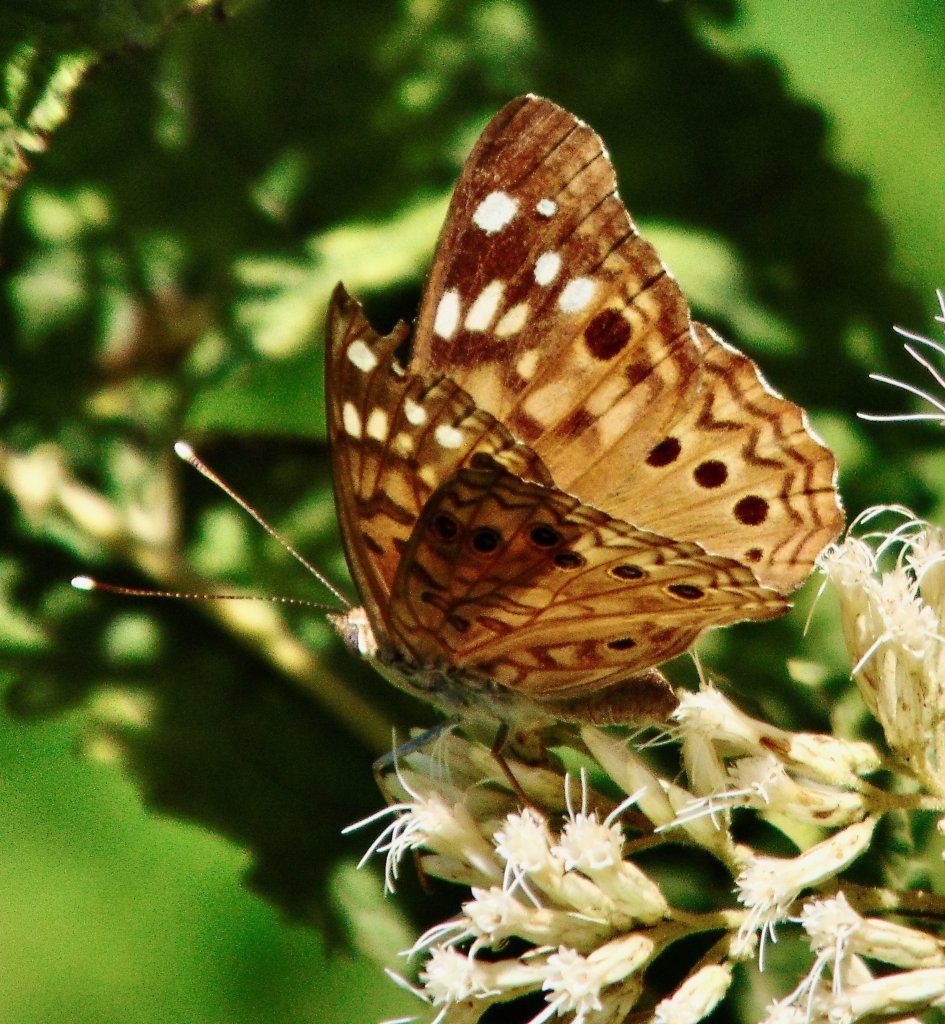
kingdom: Animalia
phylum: Arthropoda
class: Insecta
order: Lepidoptera
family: Nymphalidae
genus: Asterocampa
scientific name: Asterocampa celtis
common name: Hackberry Emperor
